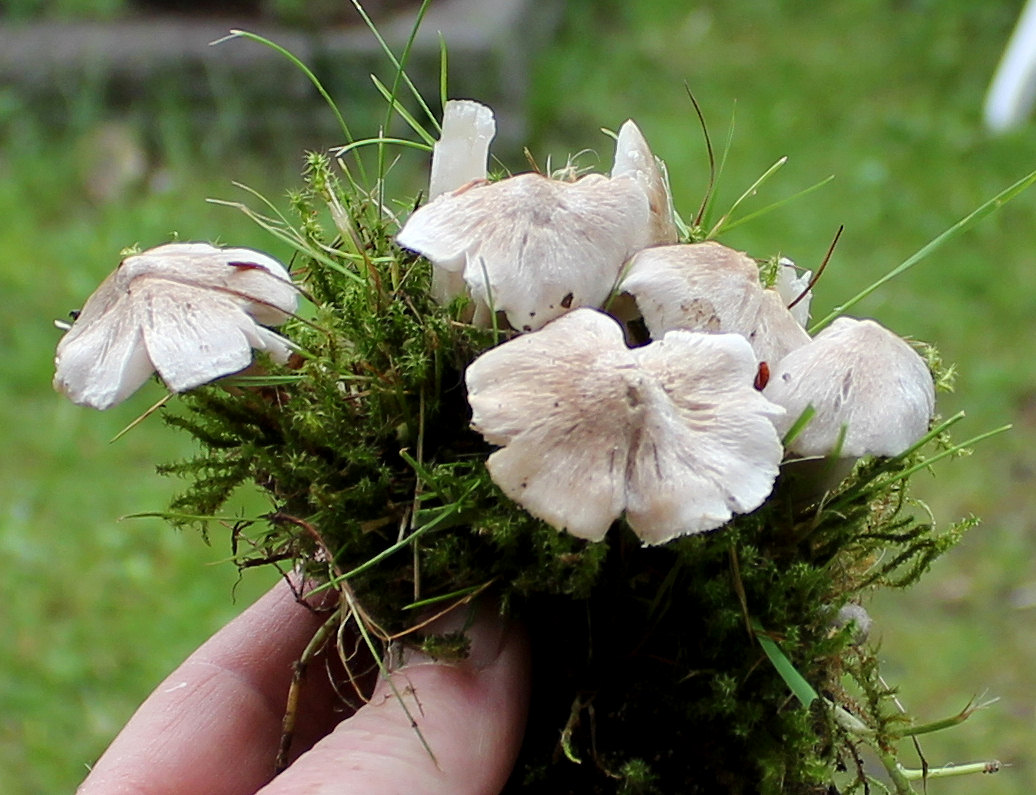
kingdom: Fungi
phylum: Basidiomycota
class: Agaricomycetes
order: Agaricales
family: Tricholomataceae
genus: Tricholoma
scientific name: Tricholoma argyraceum
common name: spids ridderhat
